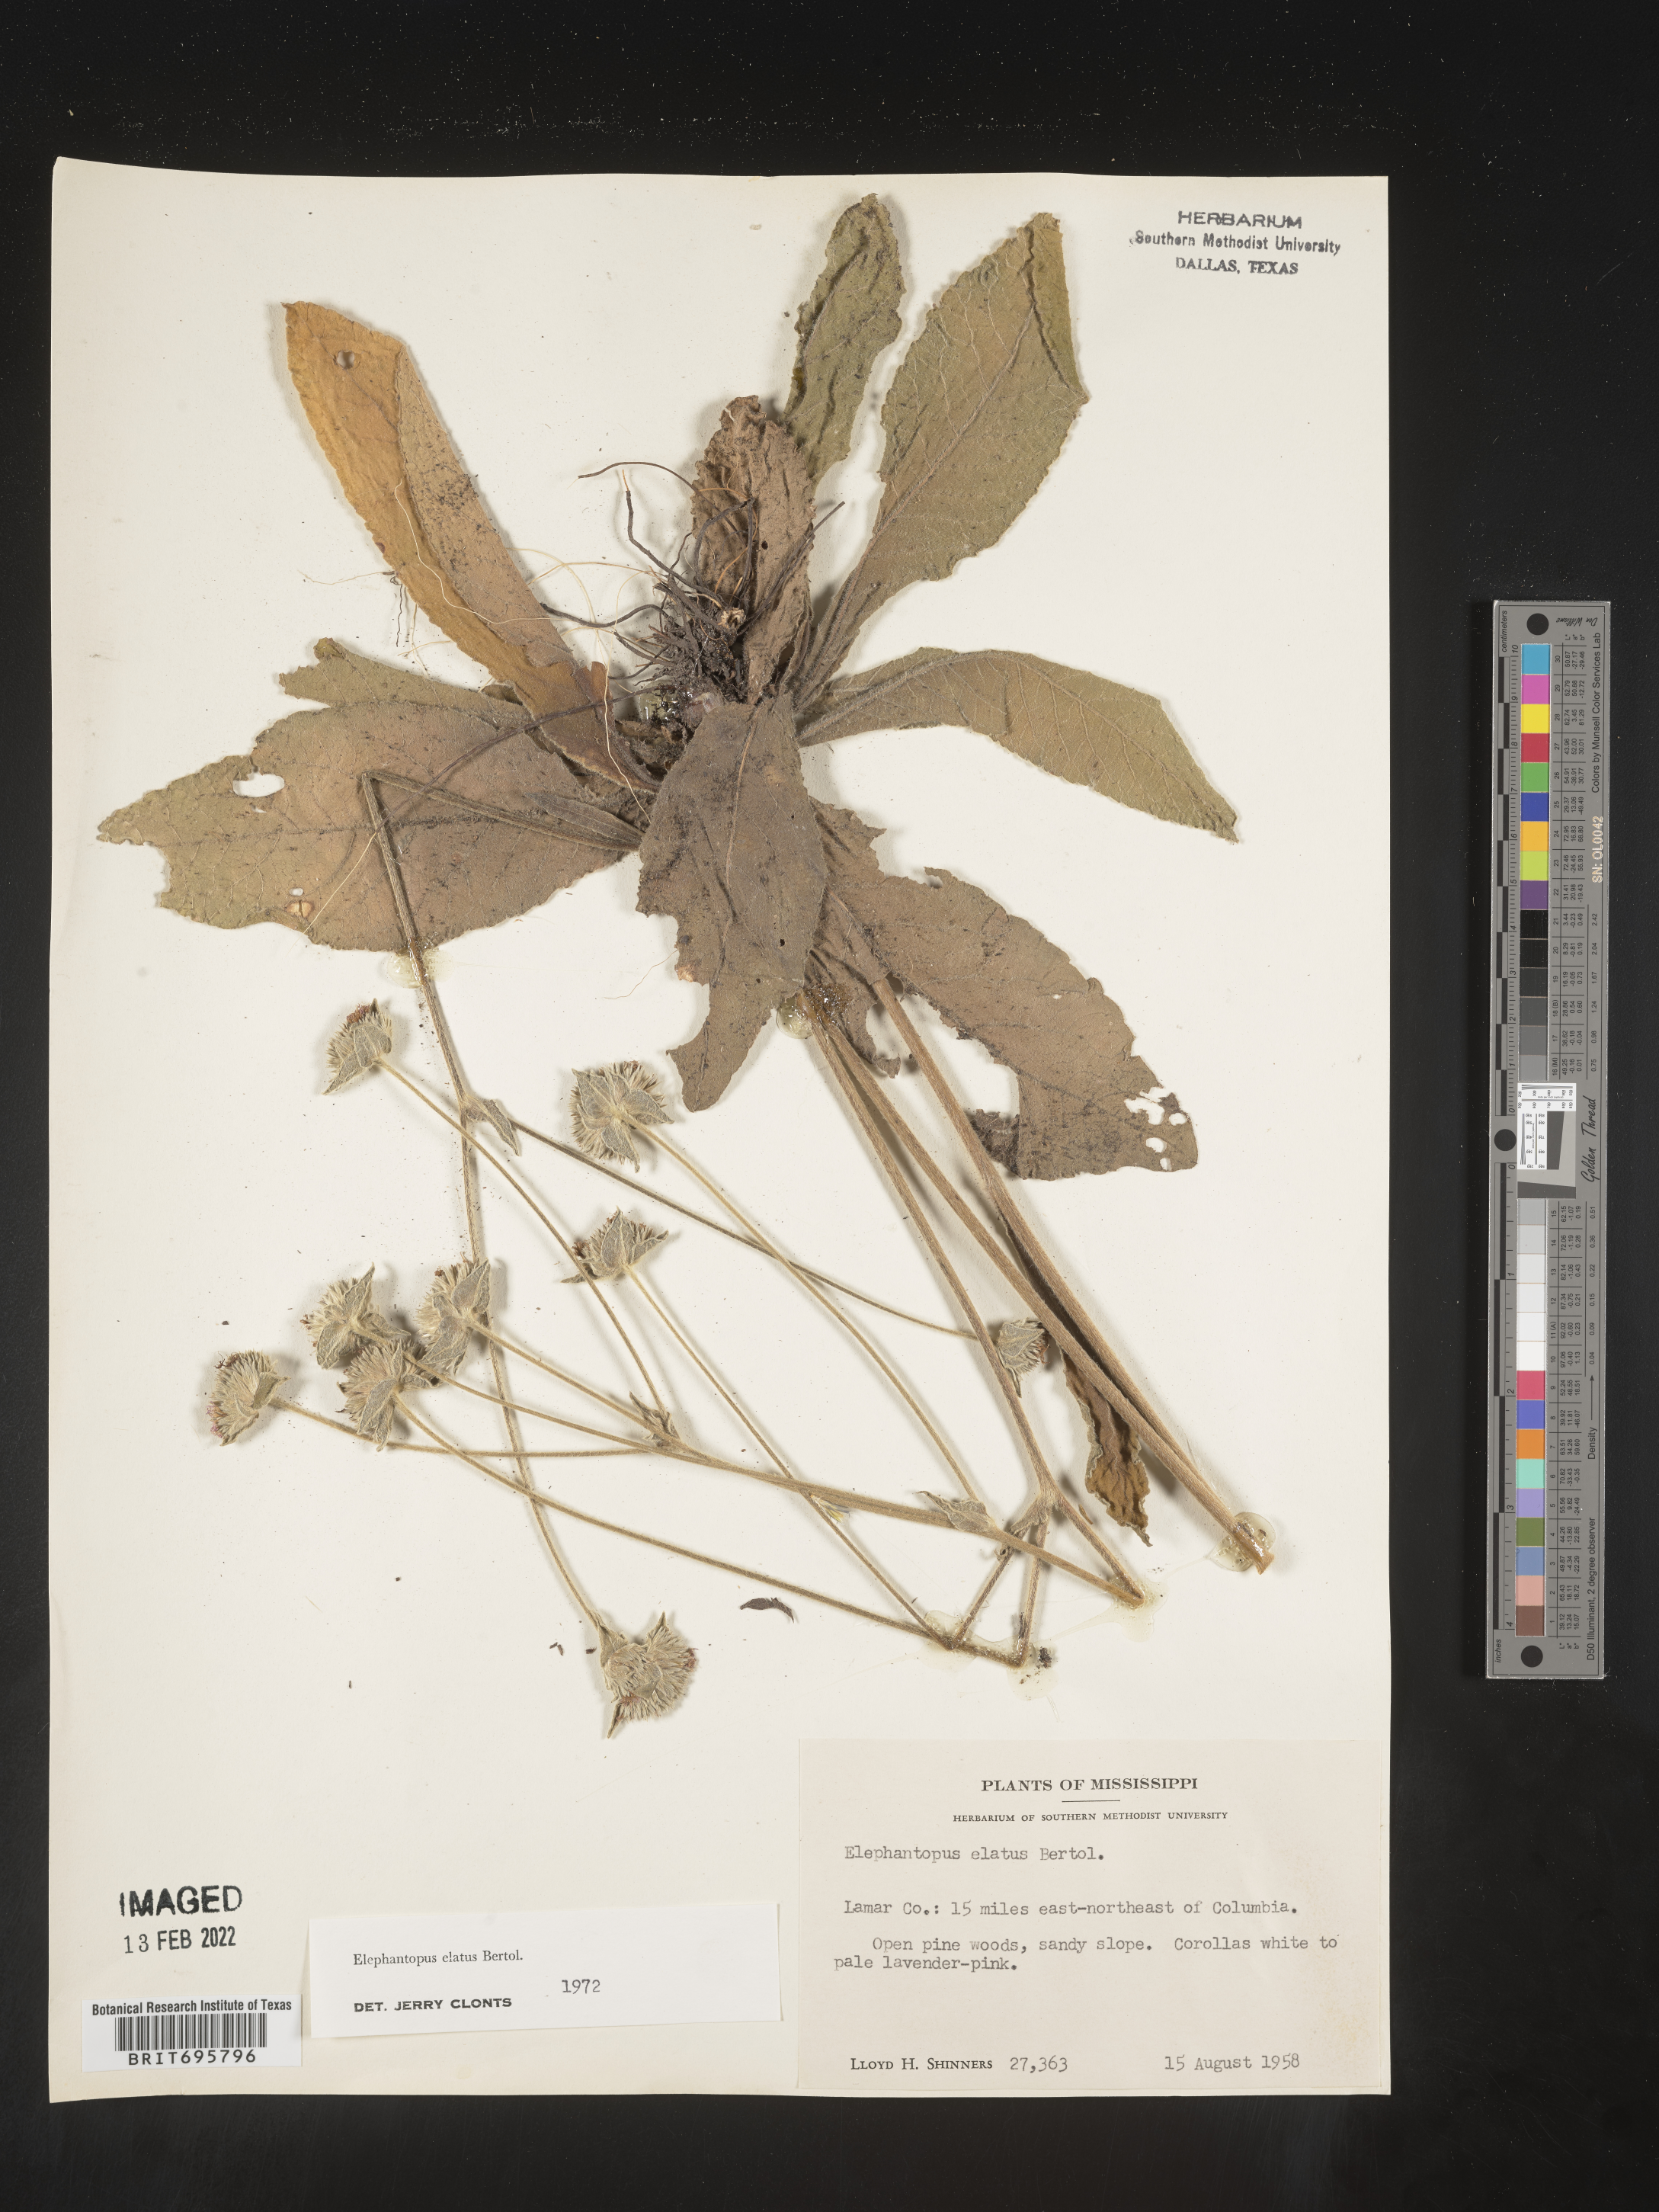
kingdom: Plantae
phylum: Tracheophyta
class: Magnoliopsida
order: Asterales
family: Asteraceae
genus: Elephantopus
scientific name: Elephantopus elatus
